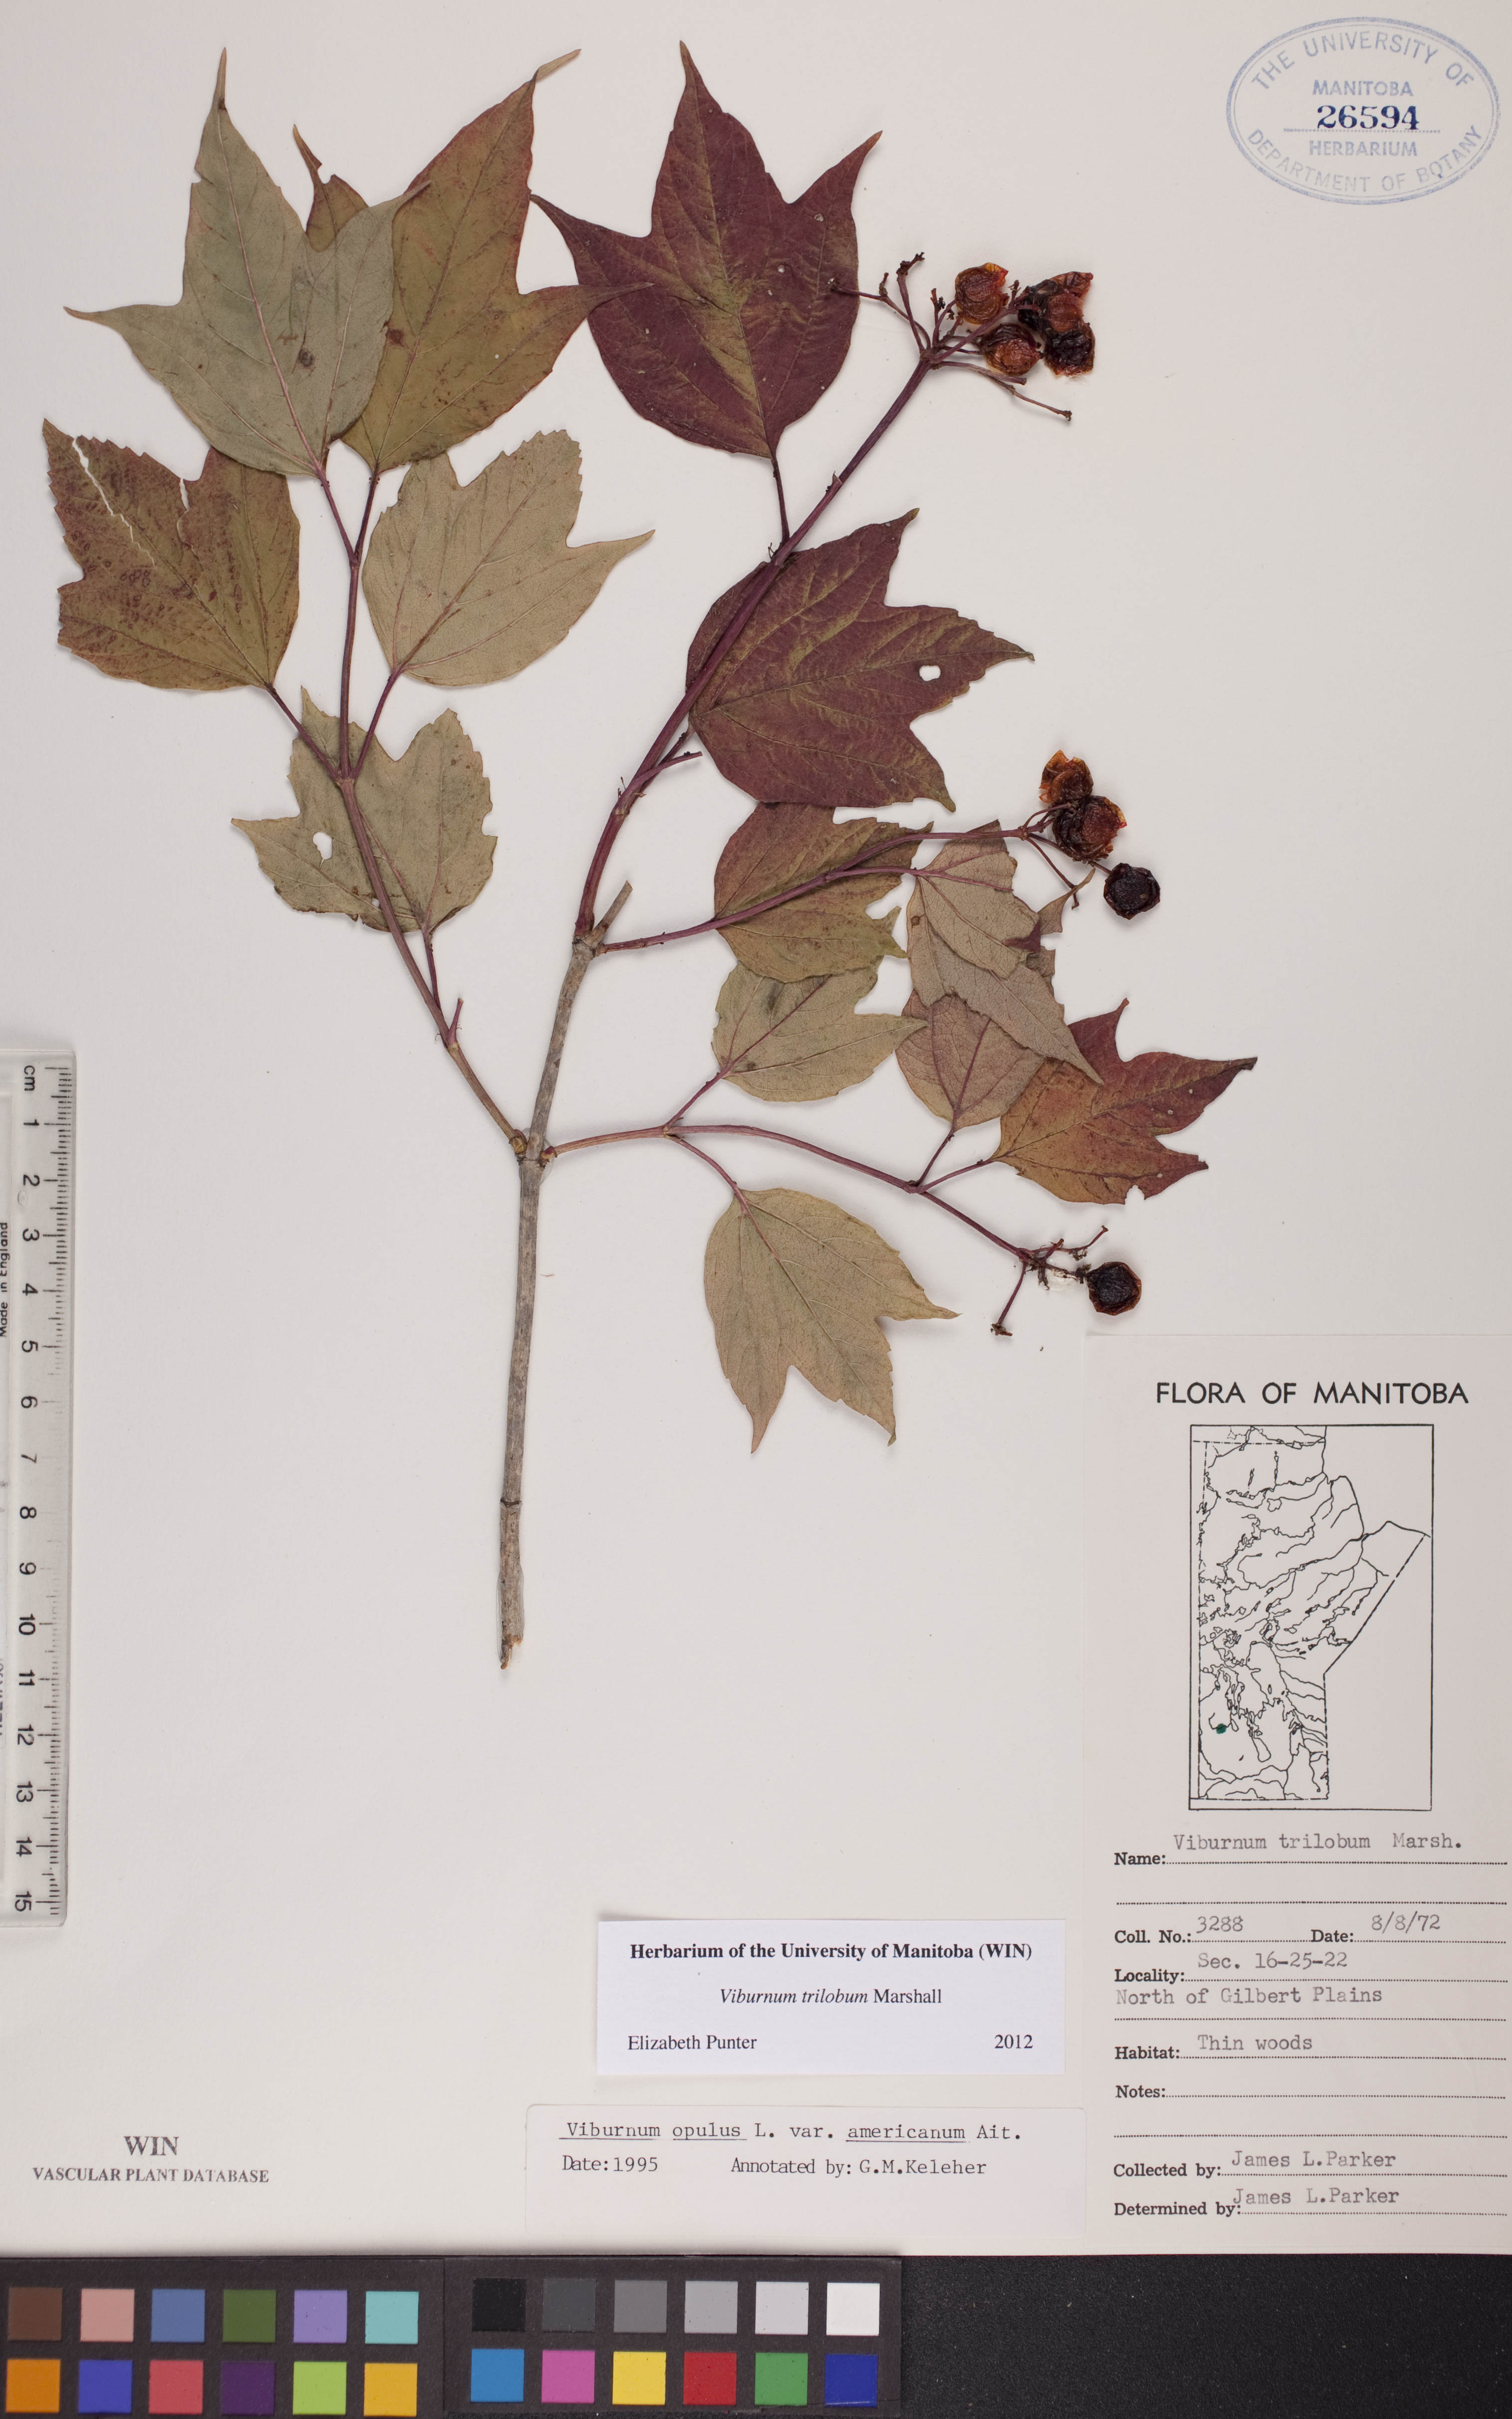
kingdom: Plantae
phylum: Tracheophyta
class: Magnoliopsida
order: Dipsacales
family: Viburnaceae
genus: Viburnum
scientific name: Viburnum trilobum
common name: American cranberrybush
